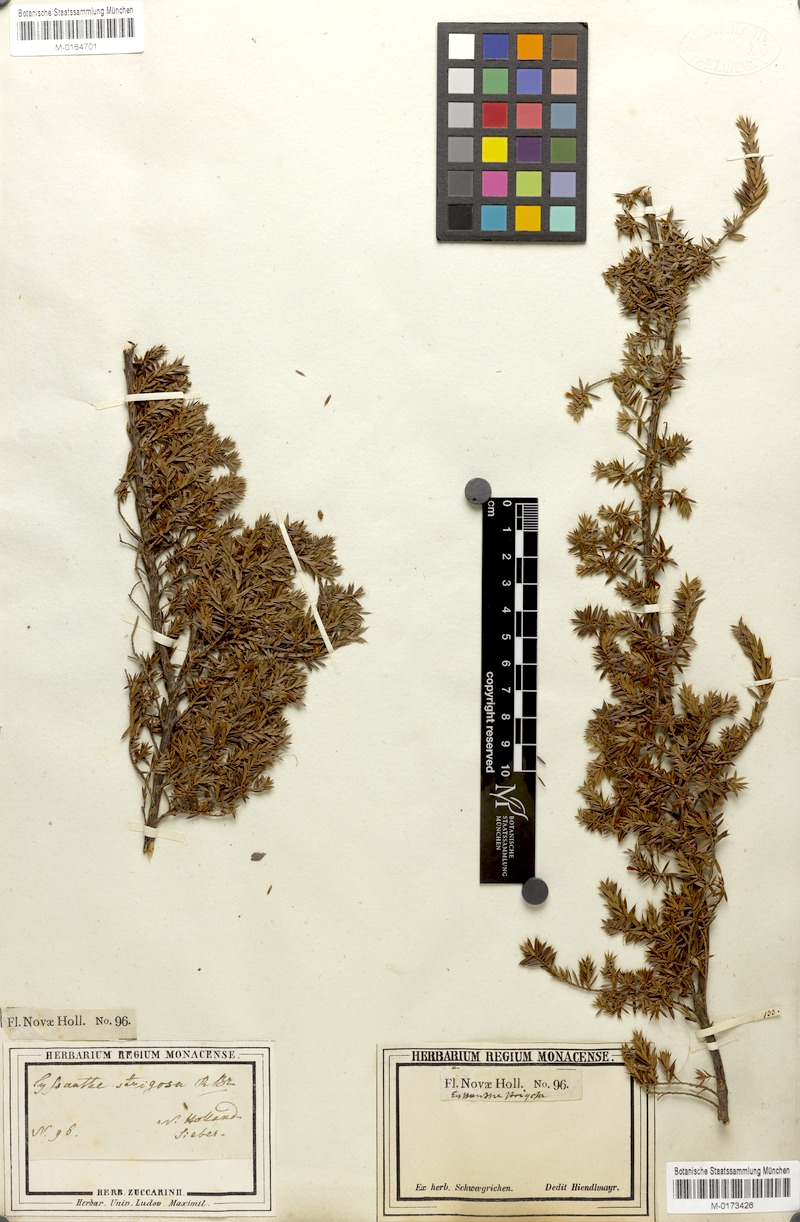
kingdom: Plantae
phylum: Tracheophyta
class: Magnoliopsida
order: Ericales
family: Ericaceae
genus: Styphelia
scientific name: Styphelia sieberi
